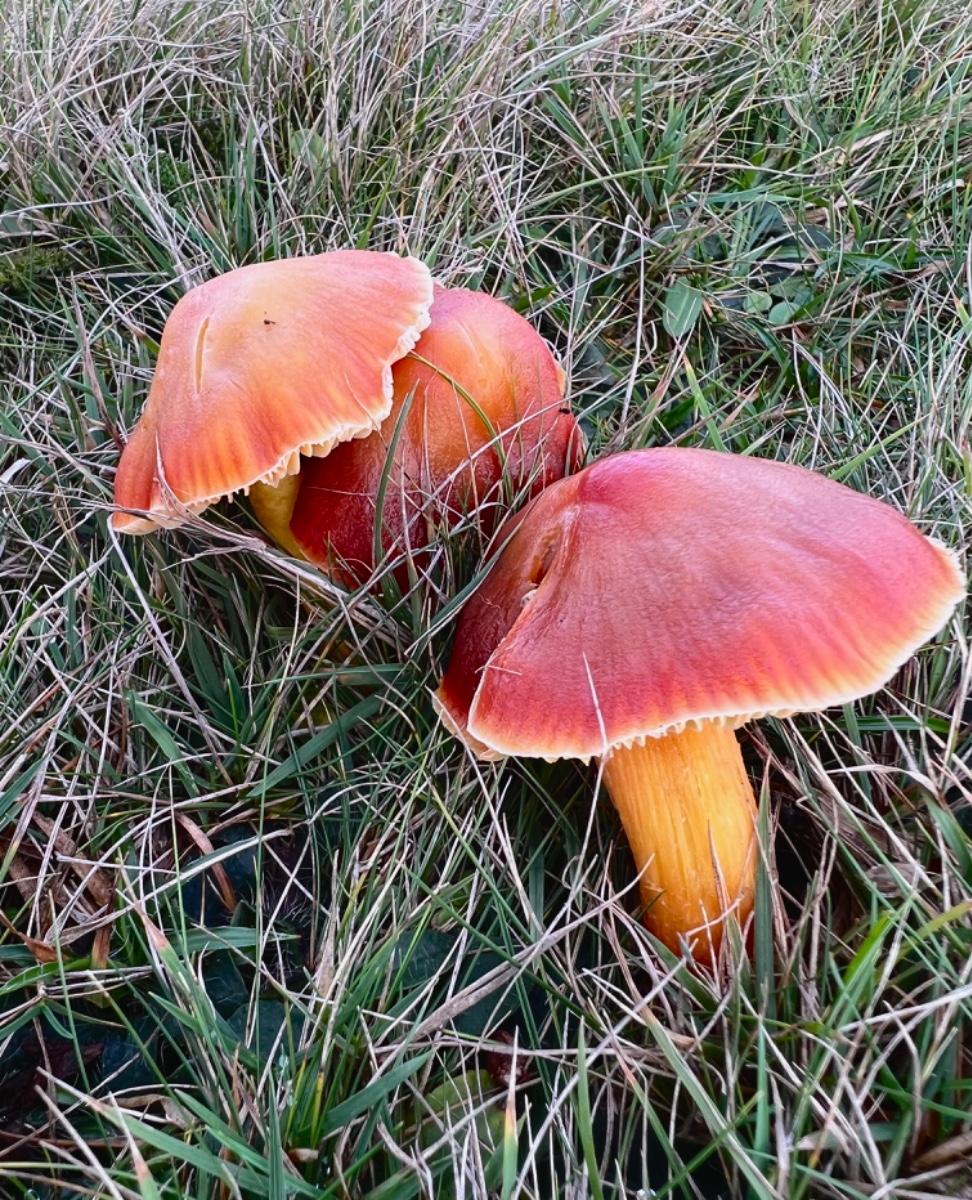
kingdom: Fungi
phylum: Basidiomycota
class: Agaricomycetes
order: Agaricales
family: Hygrophoraceae
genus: Hygrocybe
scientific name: Hygrocybe punicea
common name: skarlagen-vokshat
